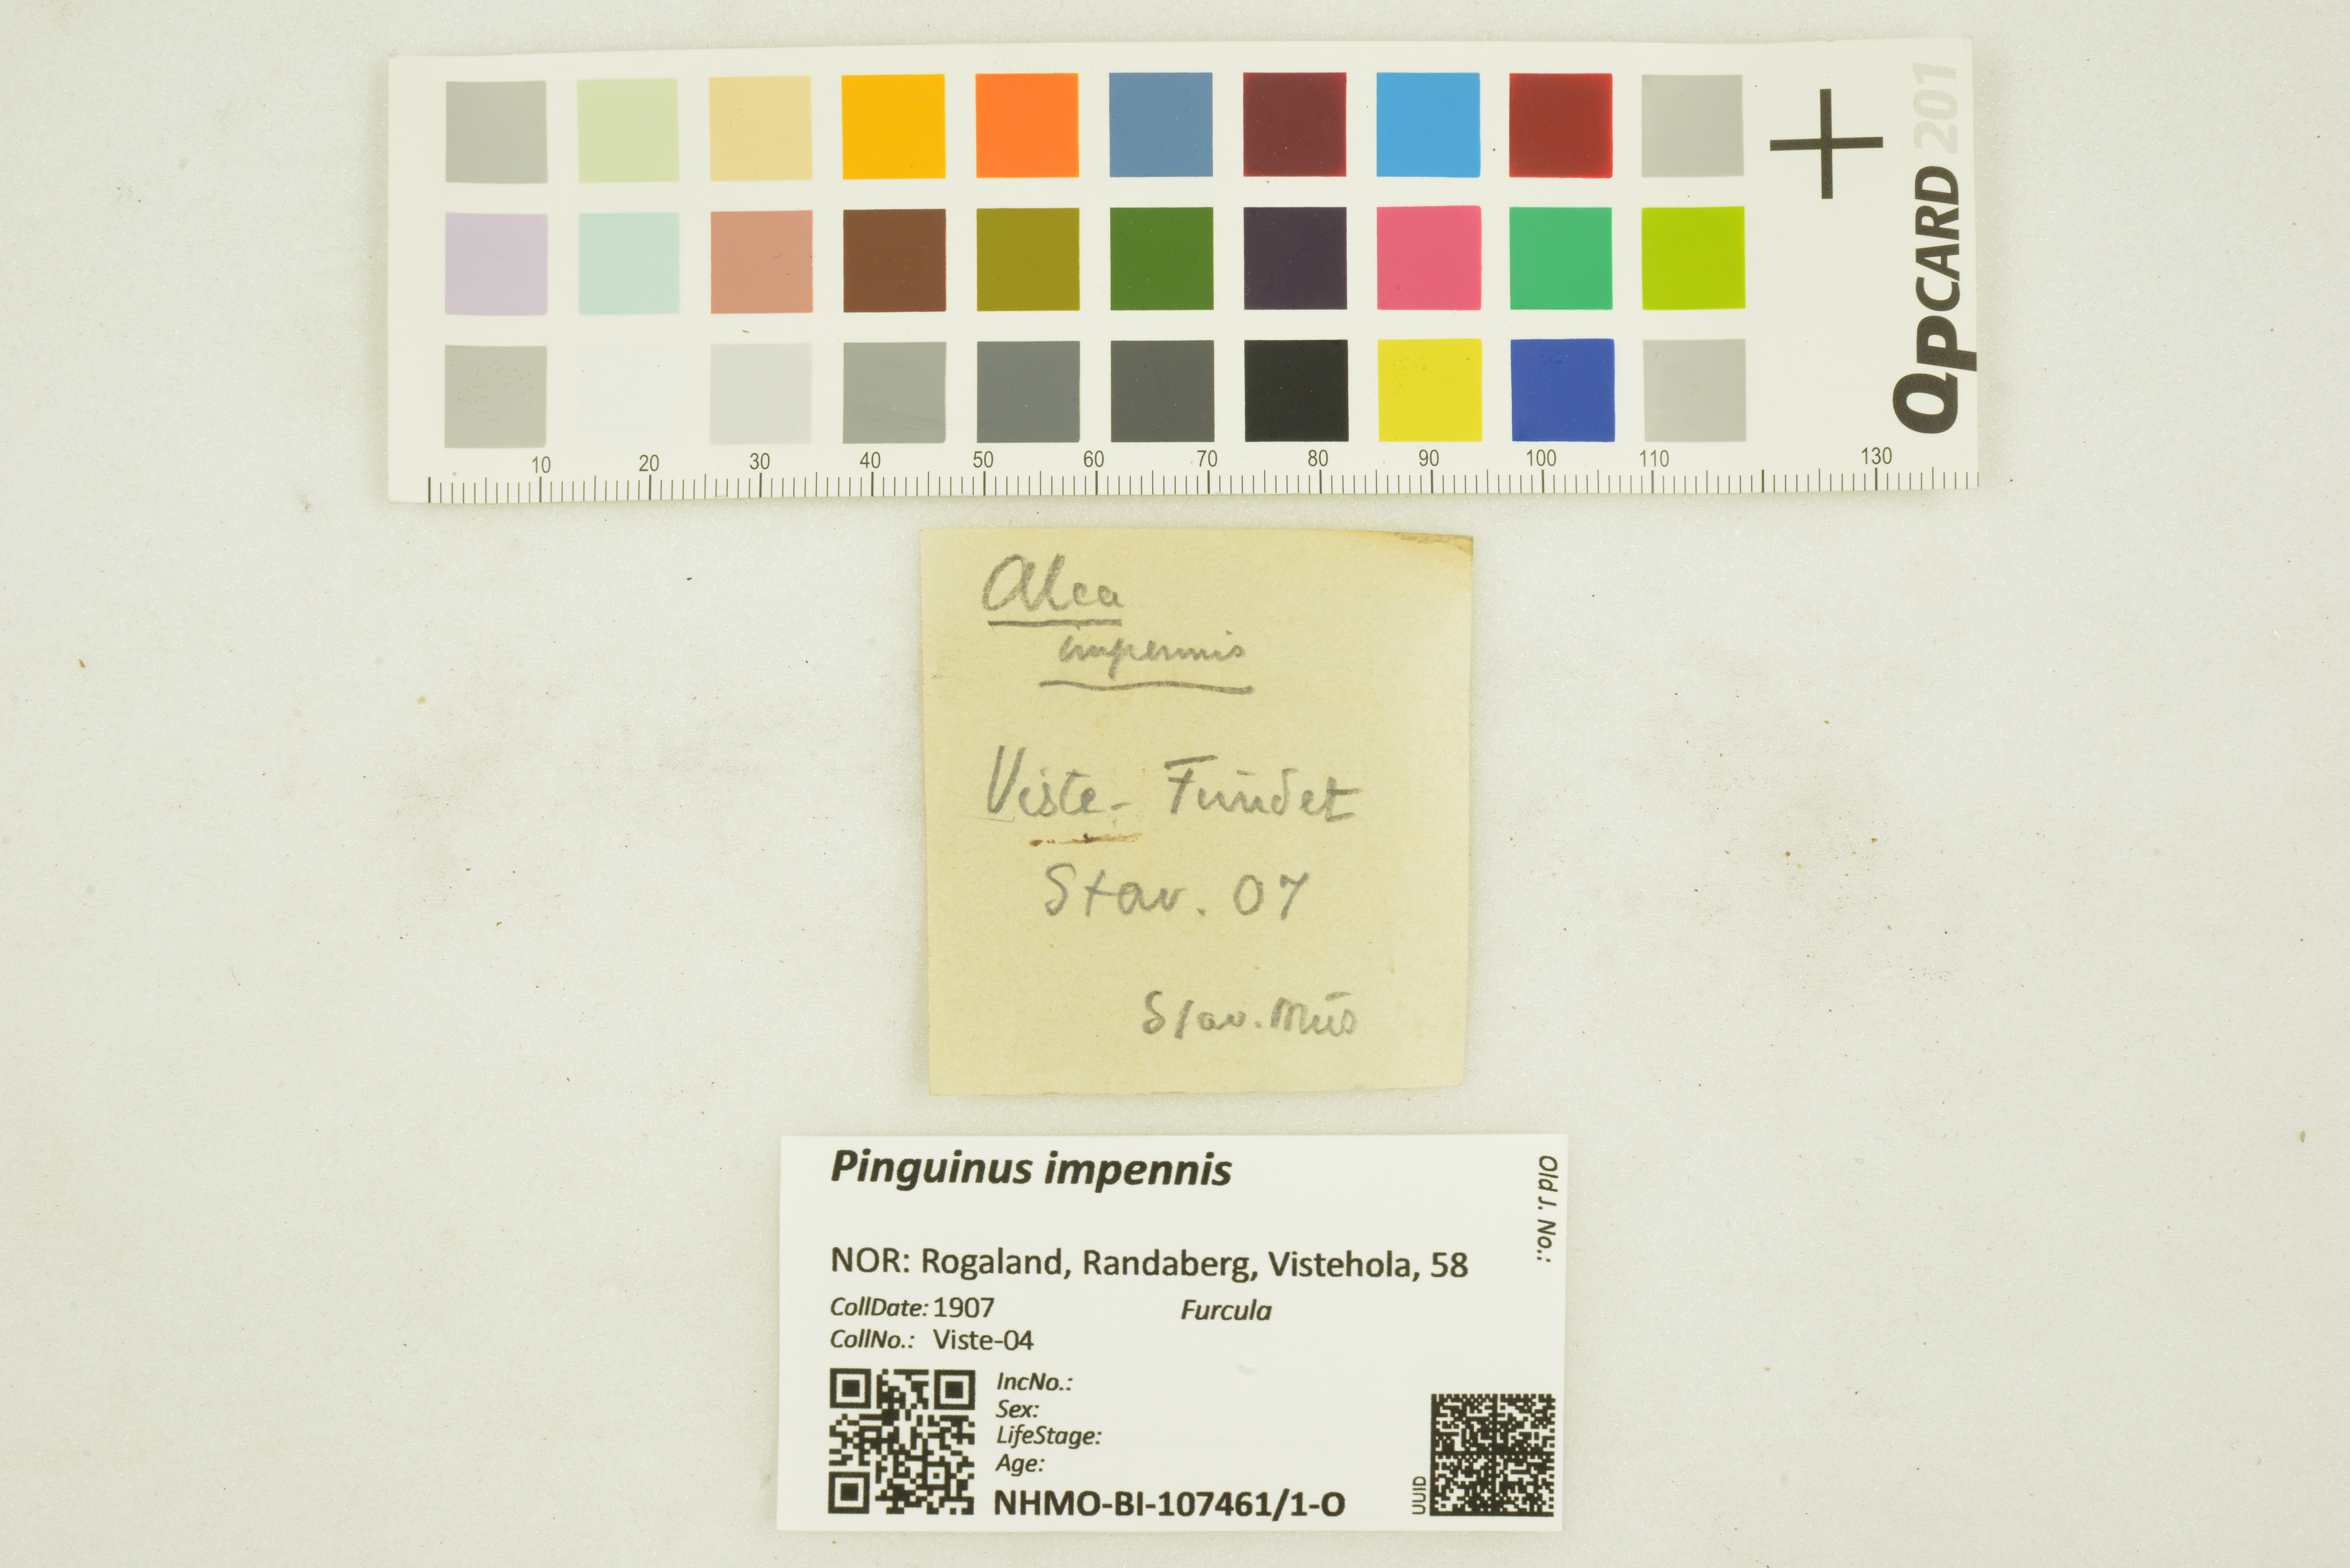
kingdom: Animalia
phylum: Chordata
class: Aves
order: Charadriiformes
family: Alcidae
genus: Pinguinus
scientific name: Pinguinus impennis
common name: Great auk
